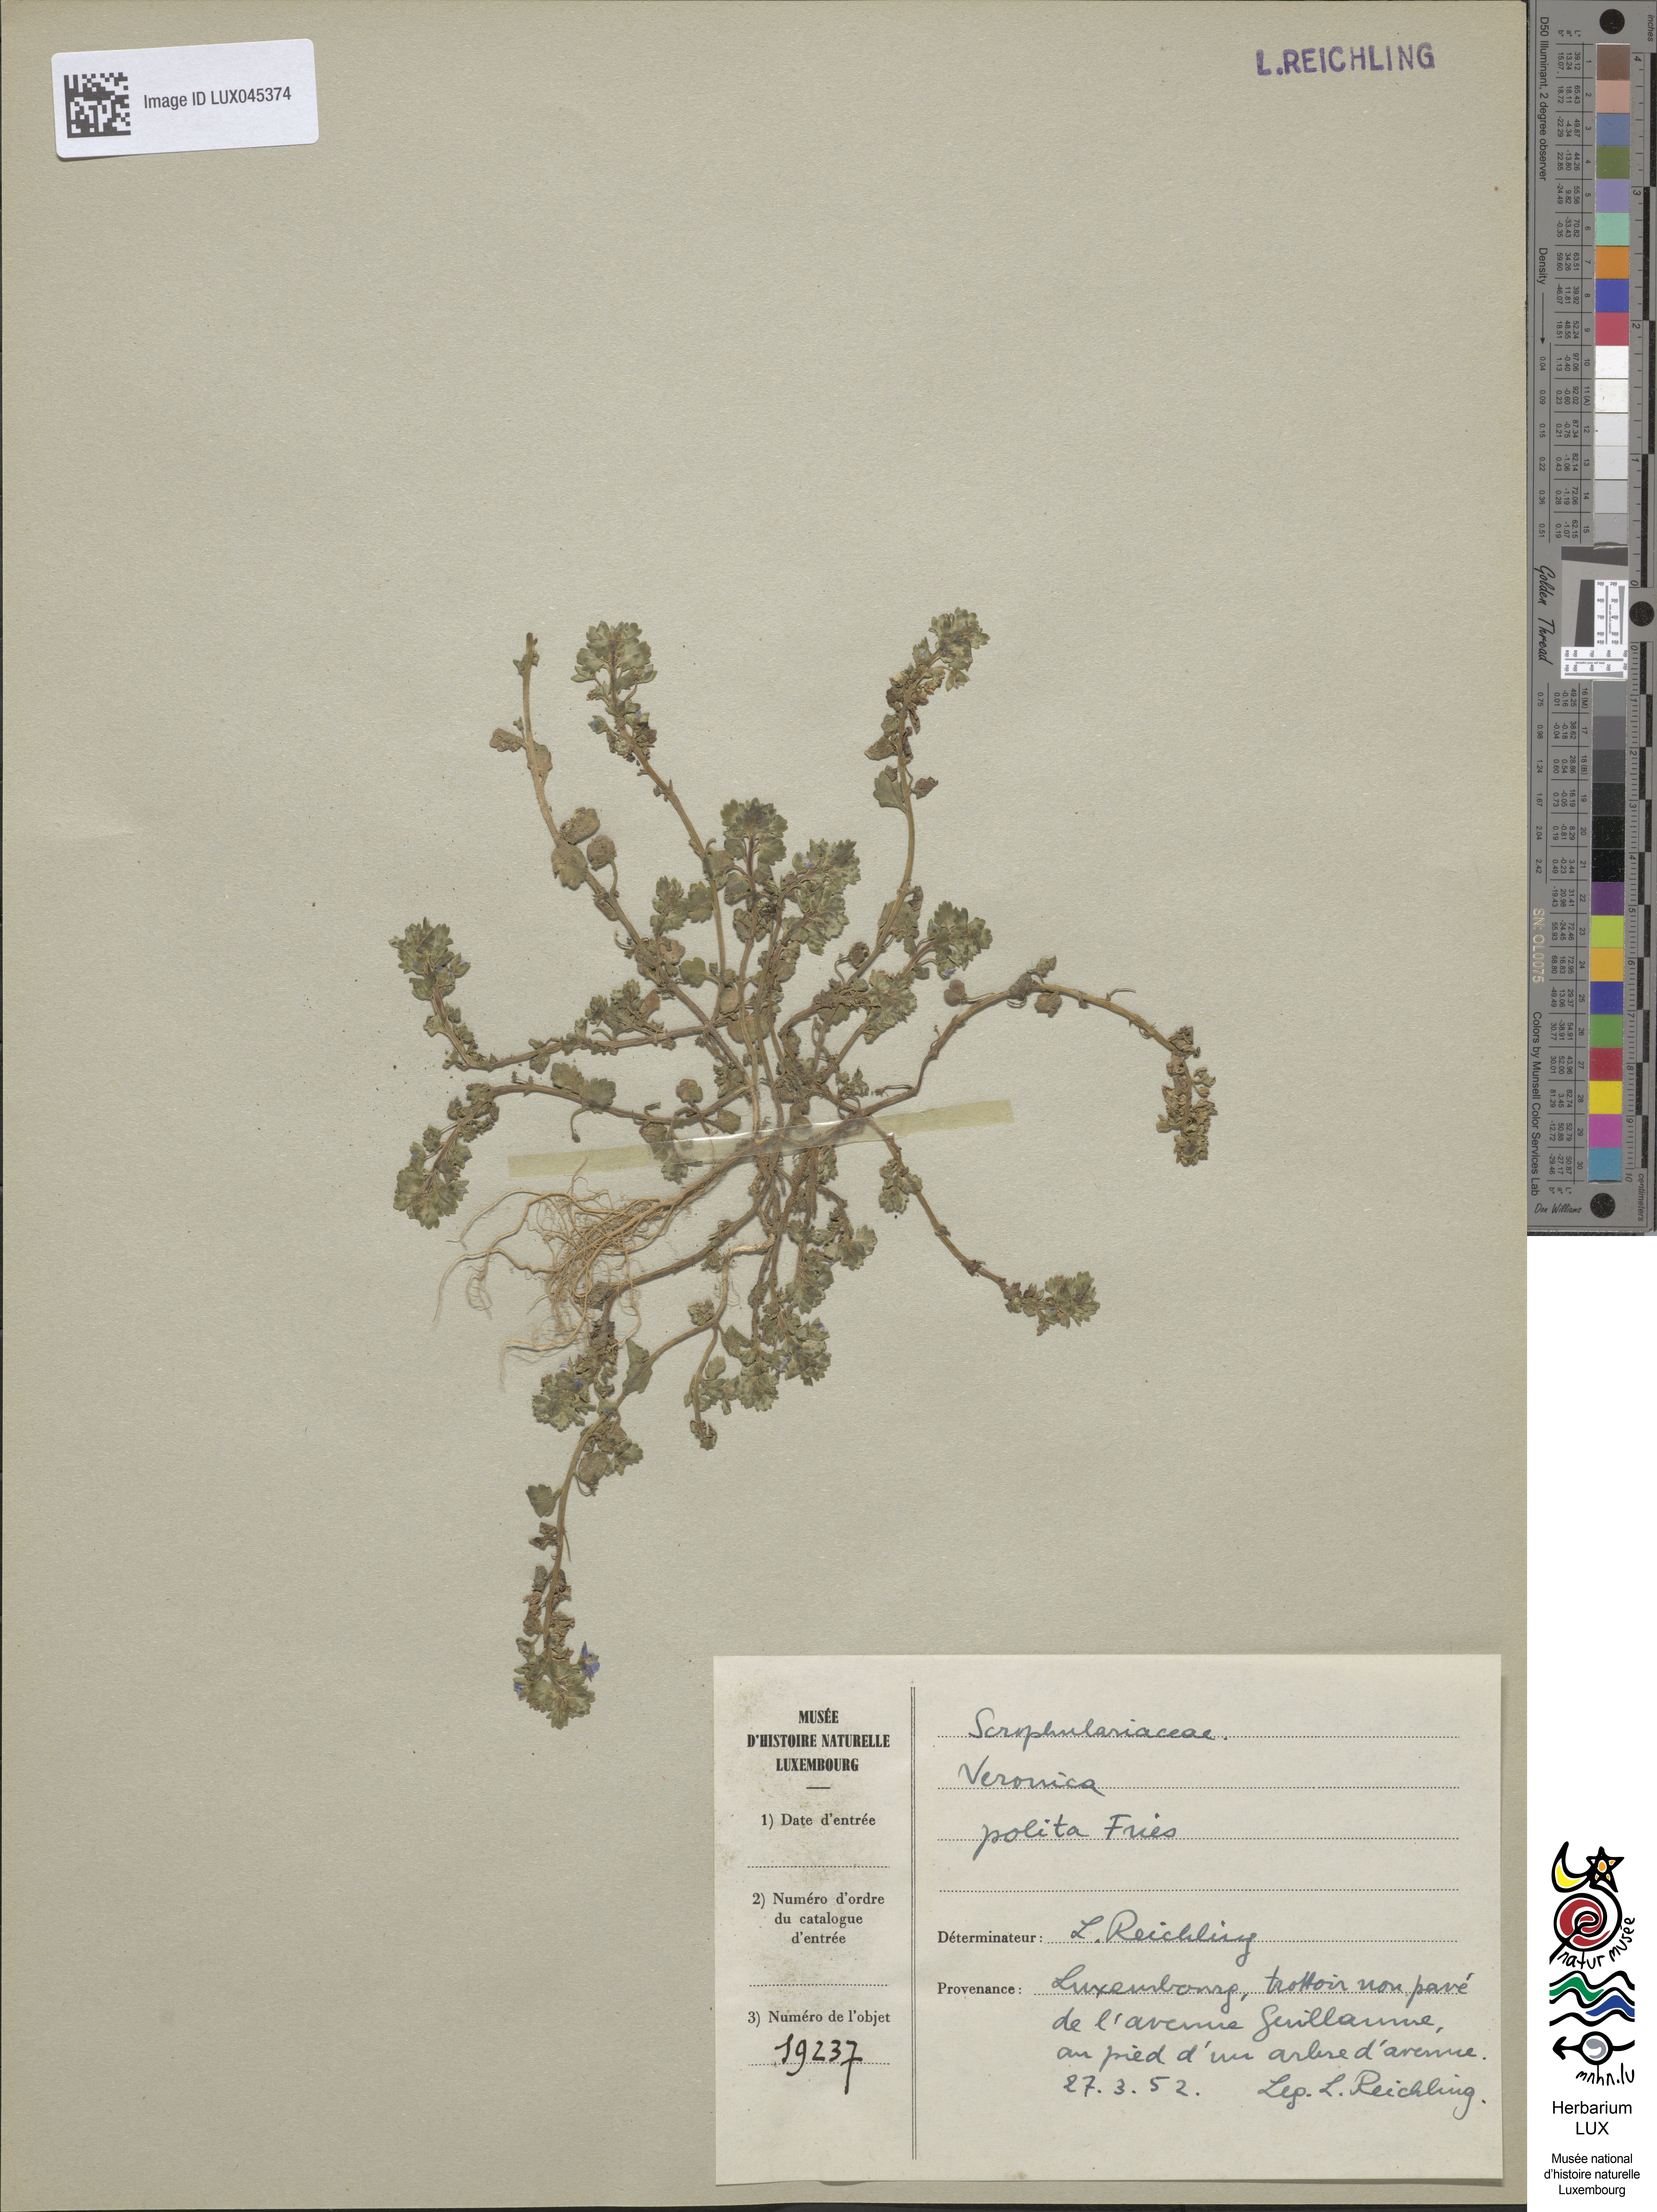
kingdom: Plantae
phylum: Tracheophyta
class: Magnoliopsida
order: Lamiales
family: Plantaginaceae
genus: Veronica
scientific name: Veronica polita
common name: Grey field-speedwell
